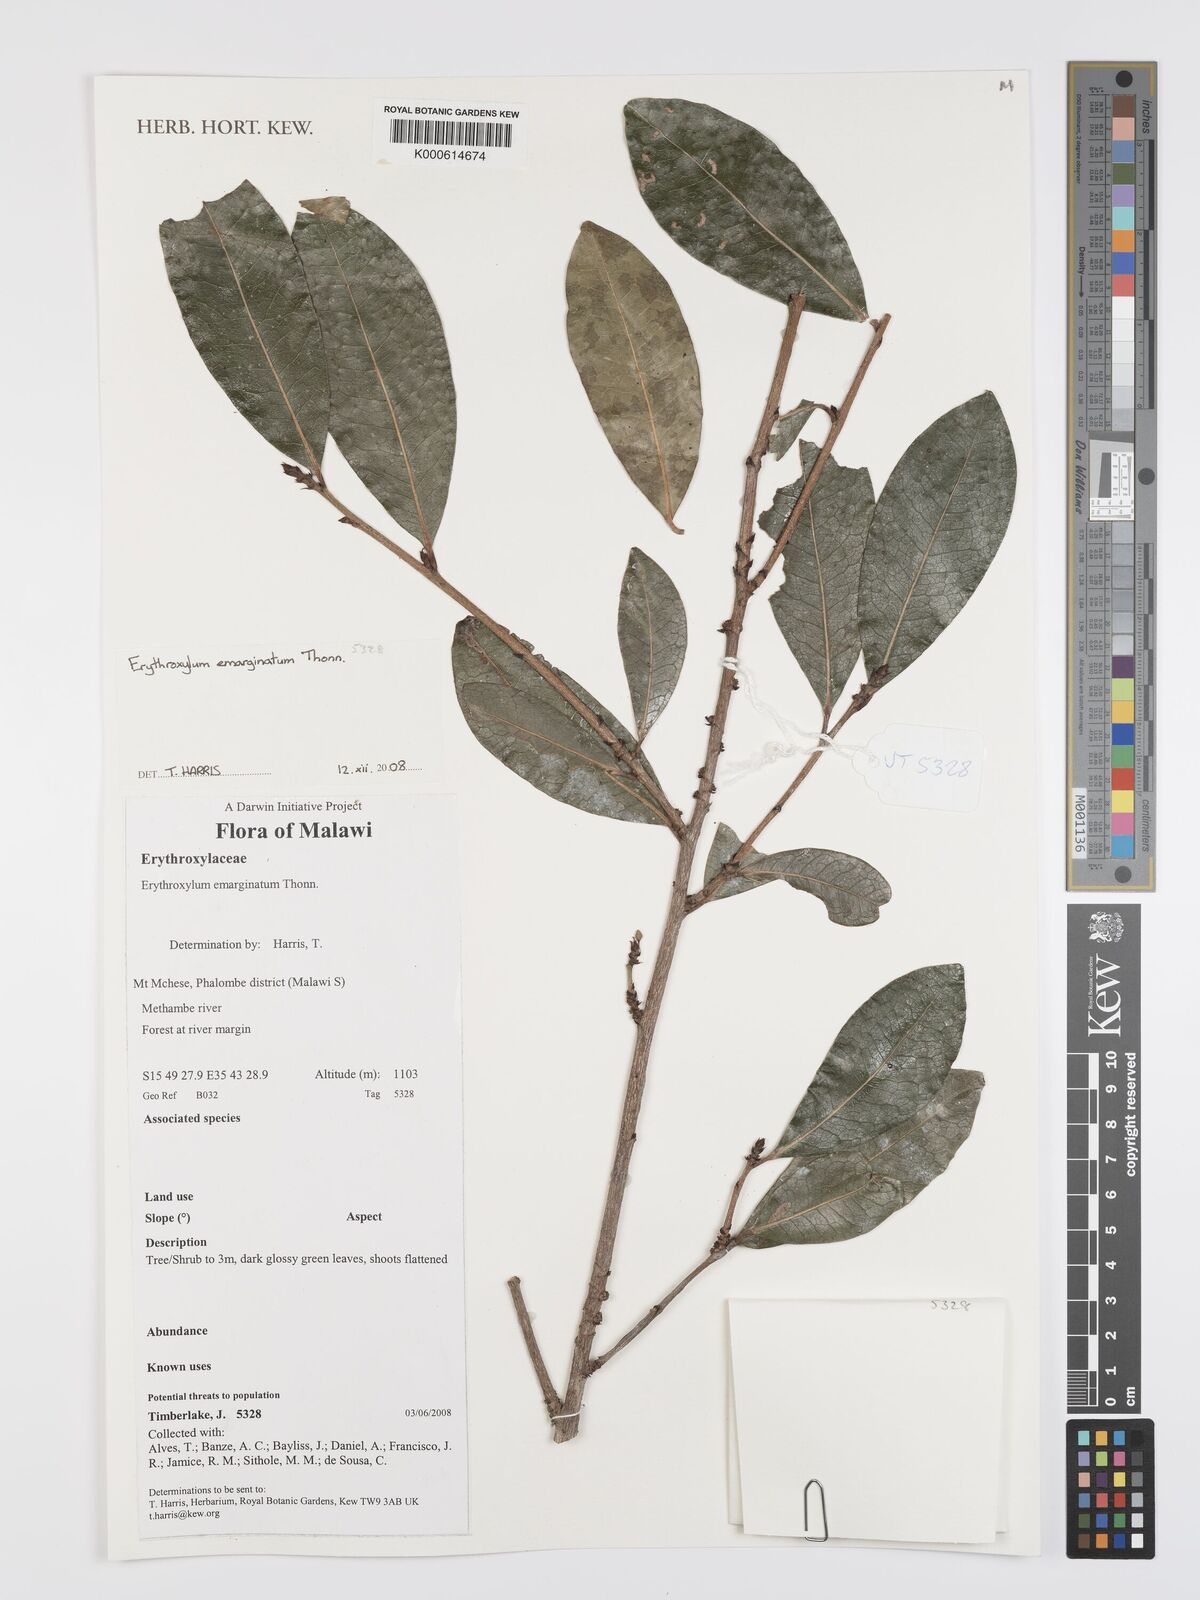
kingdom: Plantae
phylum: Tracheophyta
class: Magnoliopsida
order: Malpighiales
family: Erythroxylaceae
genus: Erythroxylum
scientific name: Erythroxylum emarginatum
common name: African coca-tree
